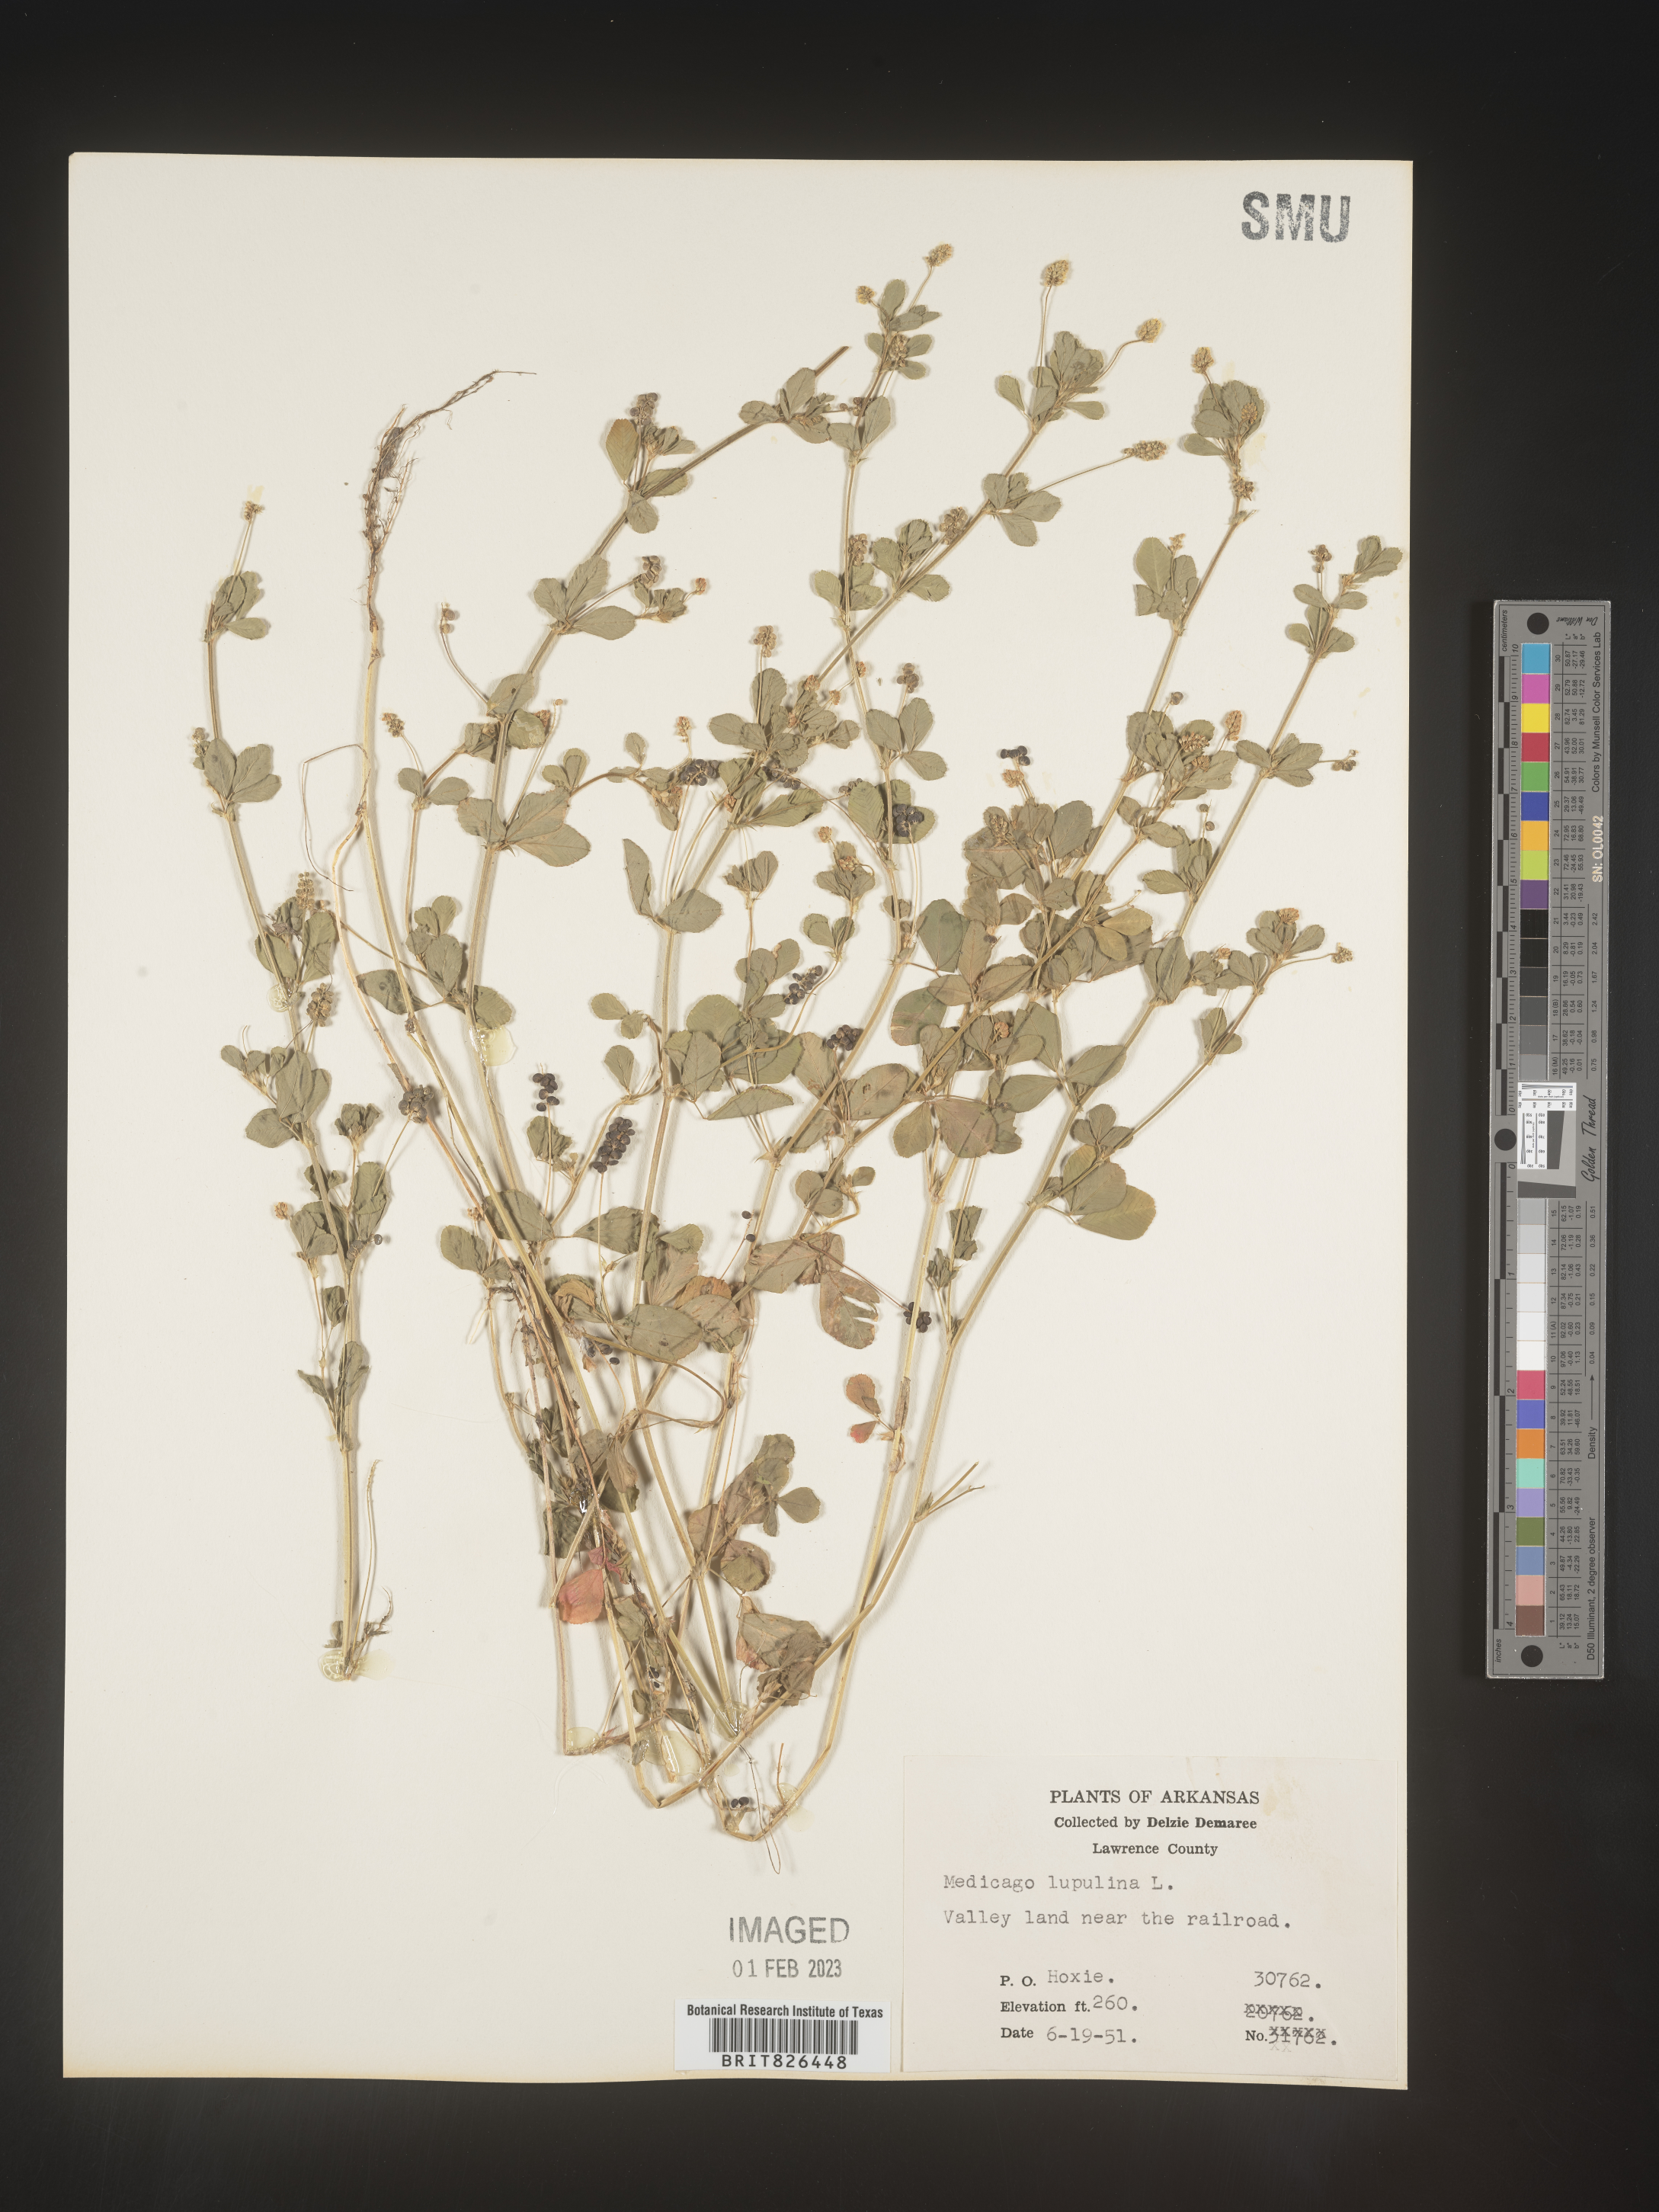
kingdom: Plantae
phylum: Tracheophyta
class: Magnoliopsida
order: Fabales
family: Fabaceae
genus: Medicago
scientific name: Medicago lupulina
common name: Black medick
